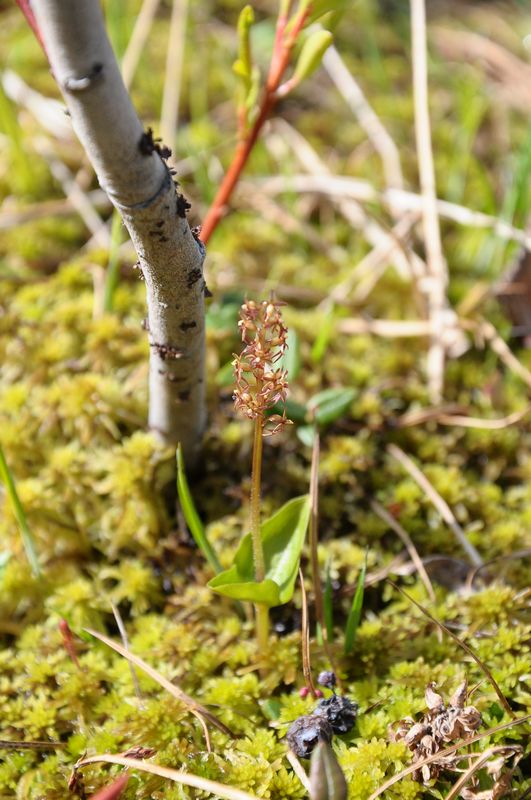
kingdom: Plantae
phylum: Tracheophyta
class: Liliopsida
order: Asparagales
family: Orchidaceae
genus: Neottia
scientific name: Neottia cordata
